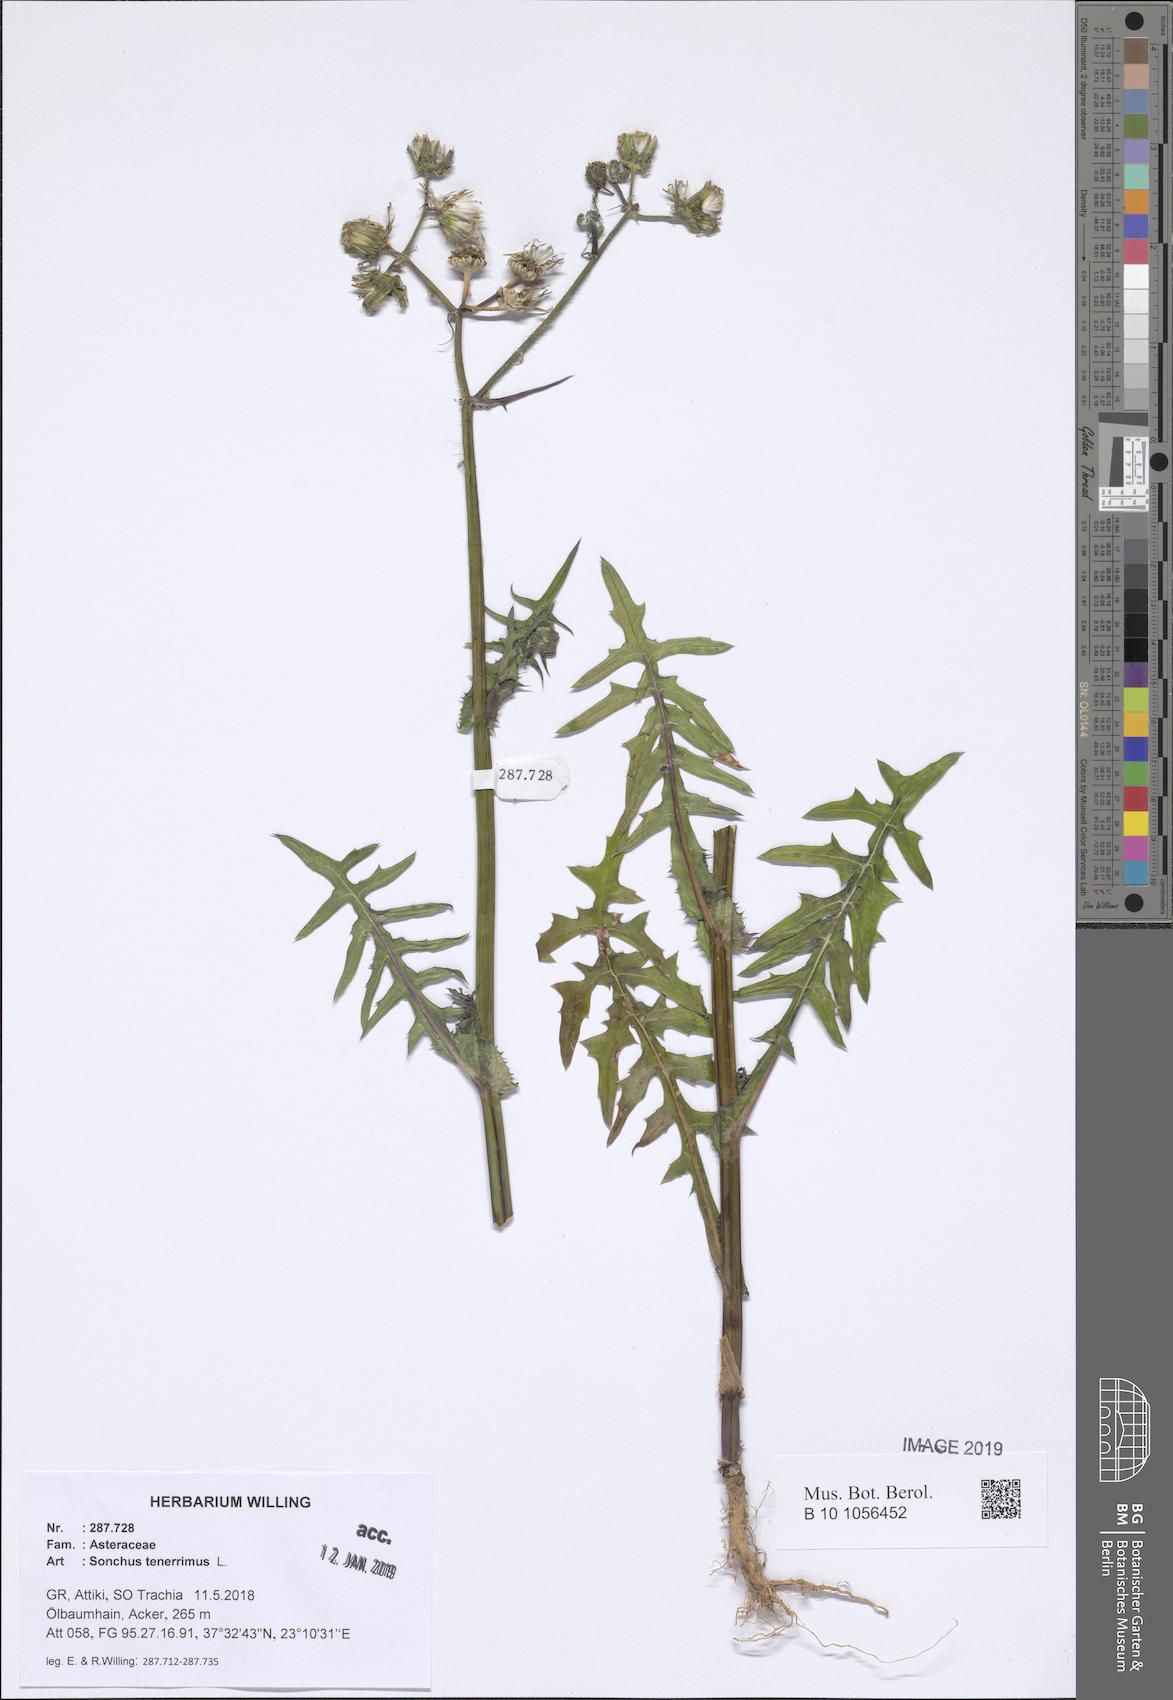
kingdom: Plantae
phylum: Tracheophyta
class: Magnoliopsida
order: Asterales
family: Asteraceae
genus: Sonchus
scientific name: Sonchus tenerrimus
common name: Clammy sowthistle
